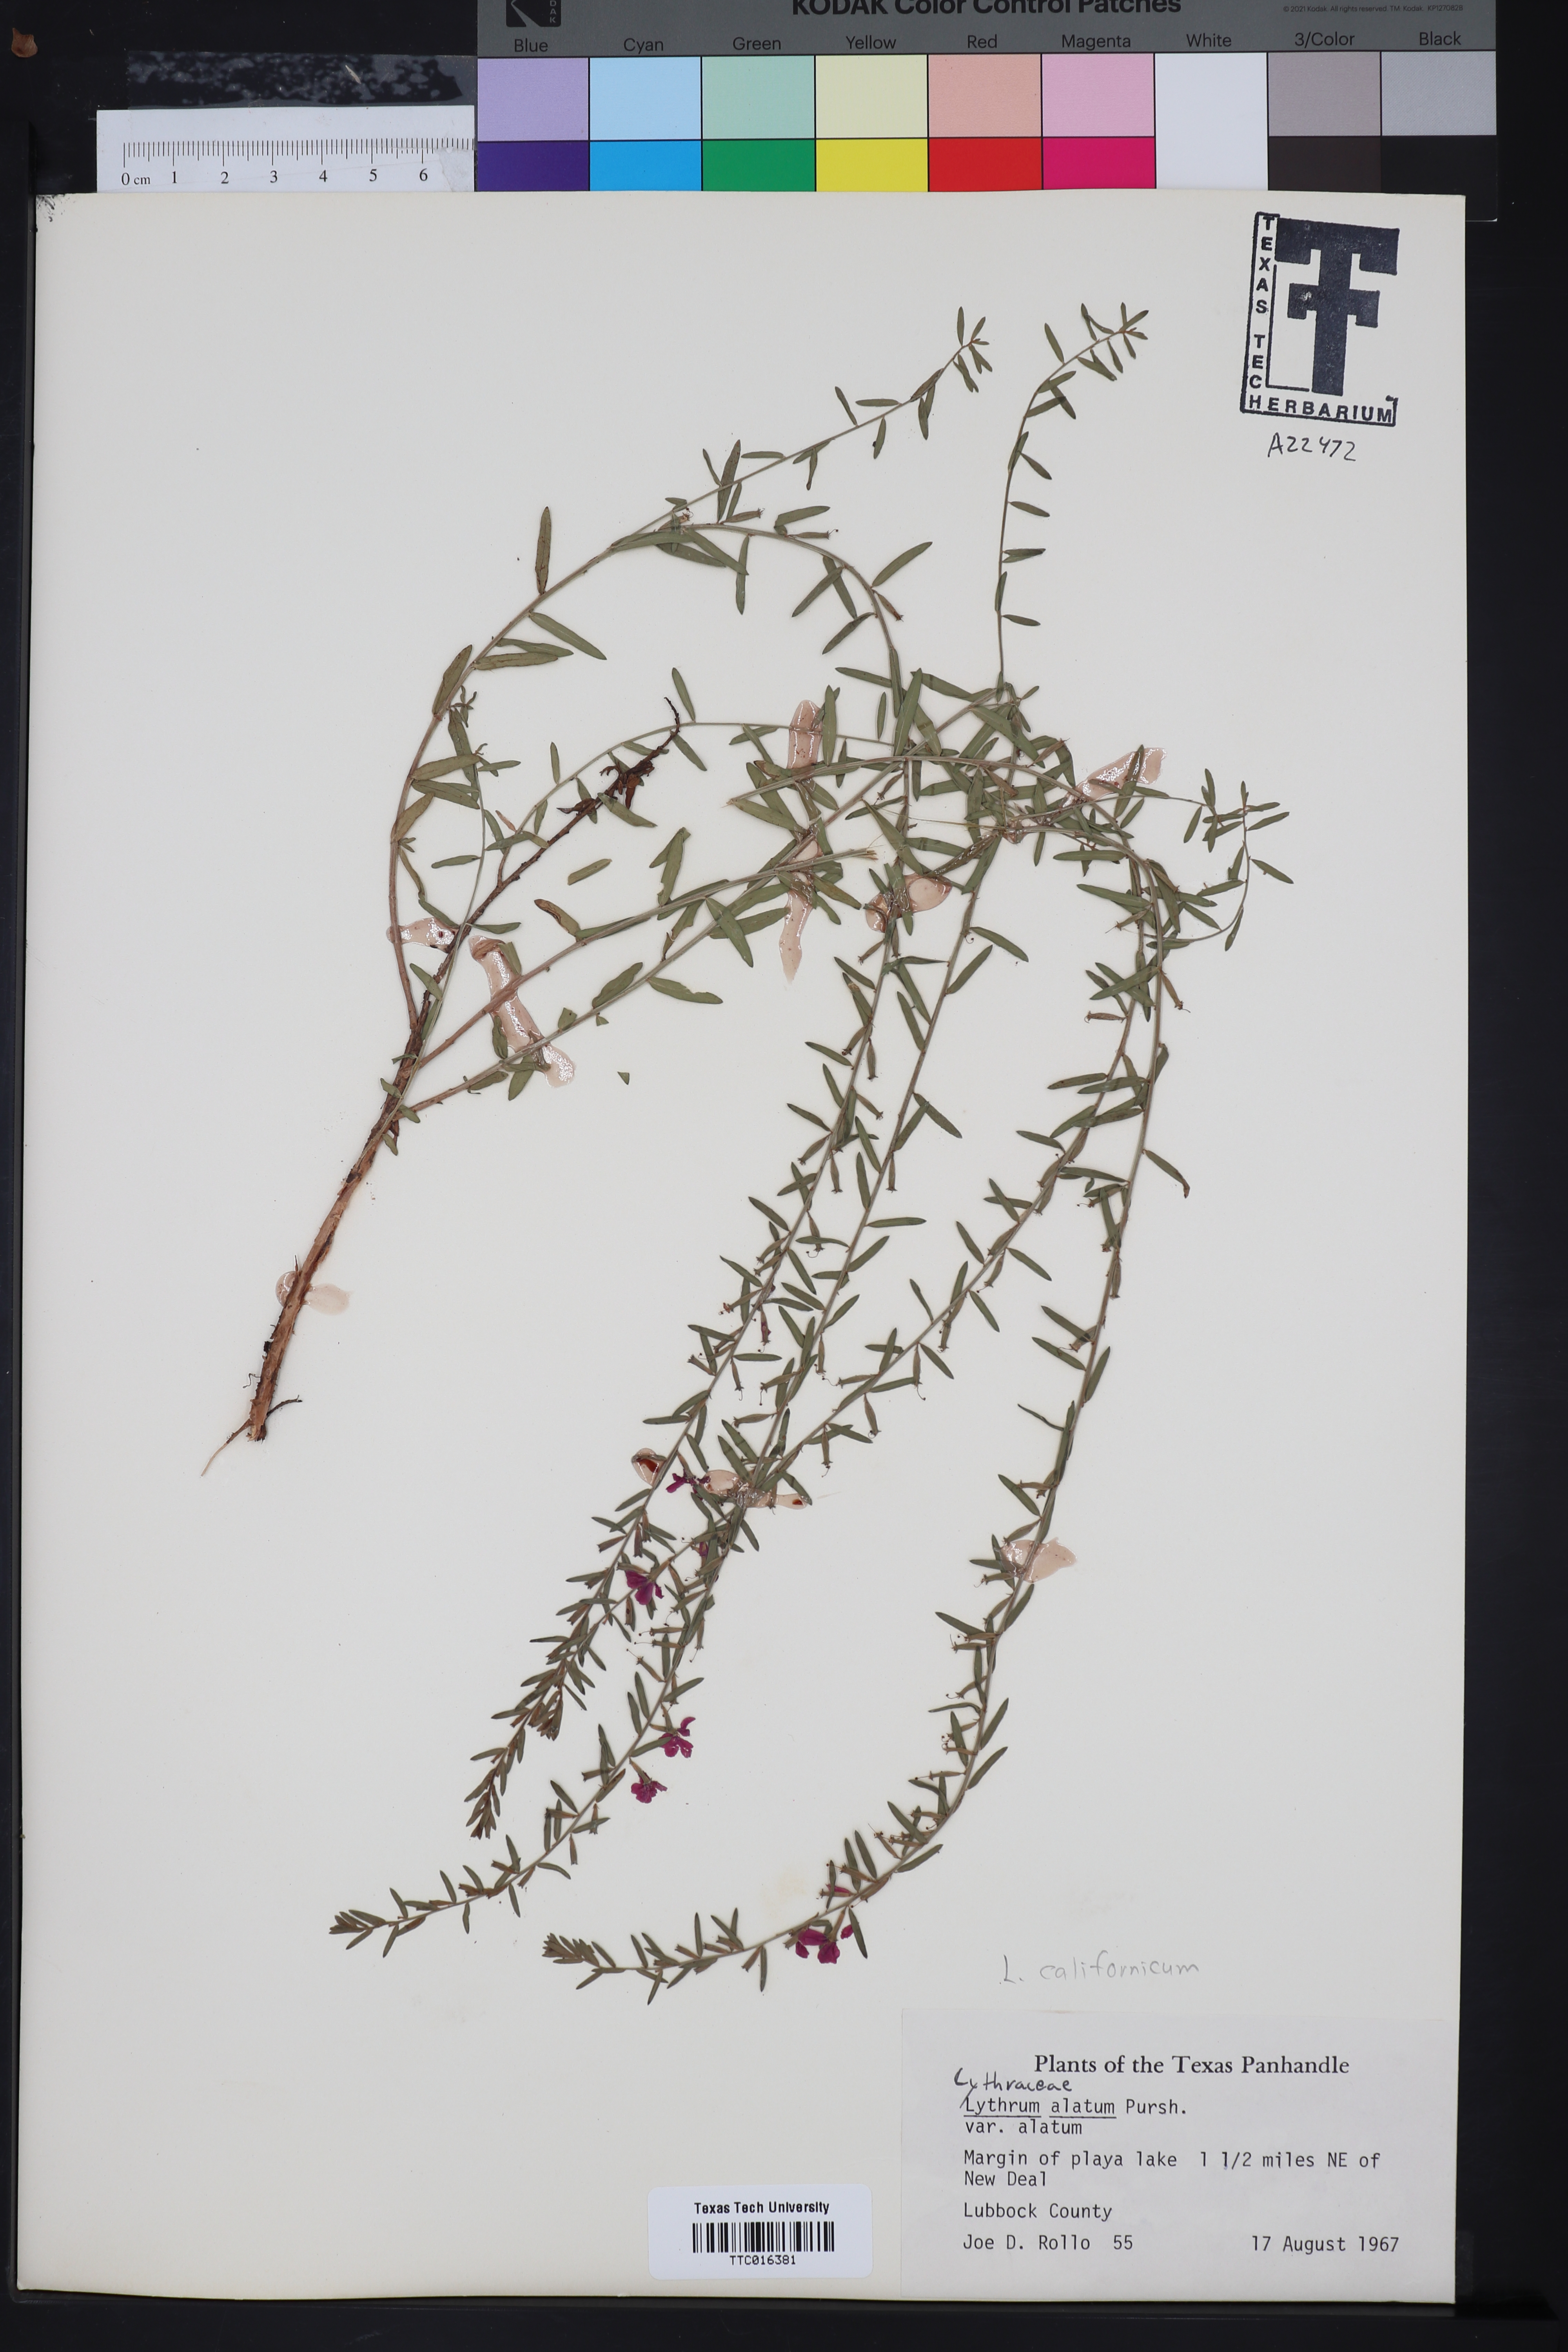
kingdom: Plantae
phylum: Tracheophyta
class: Magnoliopsida
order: Myrtales
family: Lythraceae
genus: Lythrum
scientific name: Lythrum alatum
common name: Winged loosestrife
